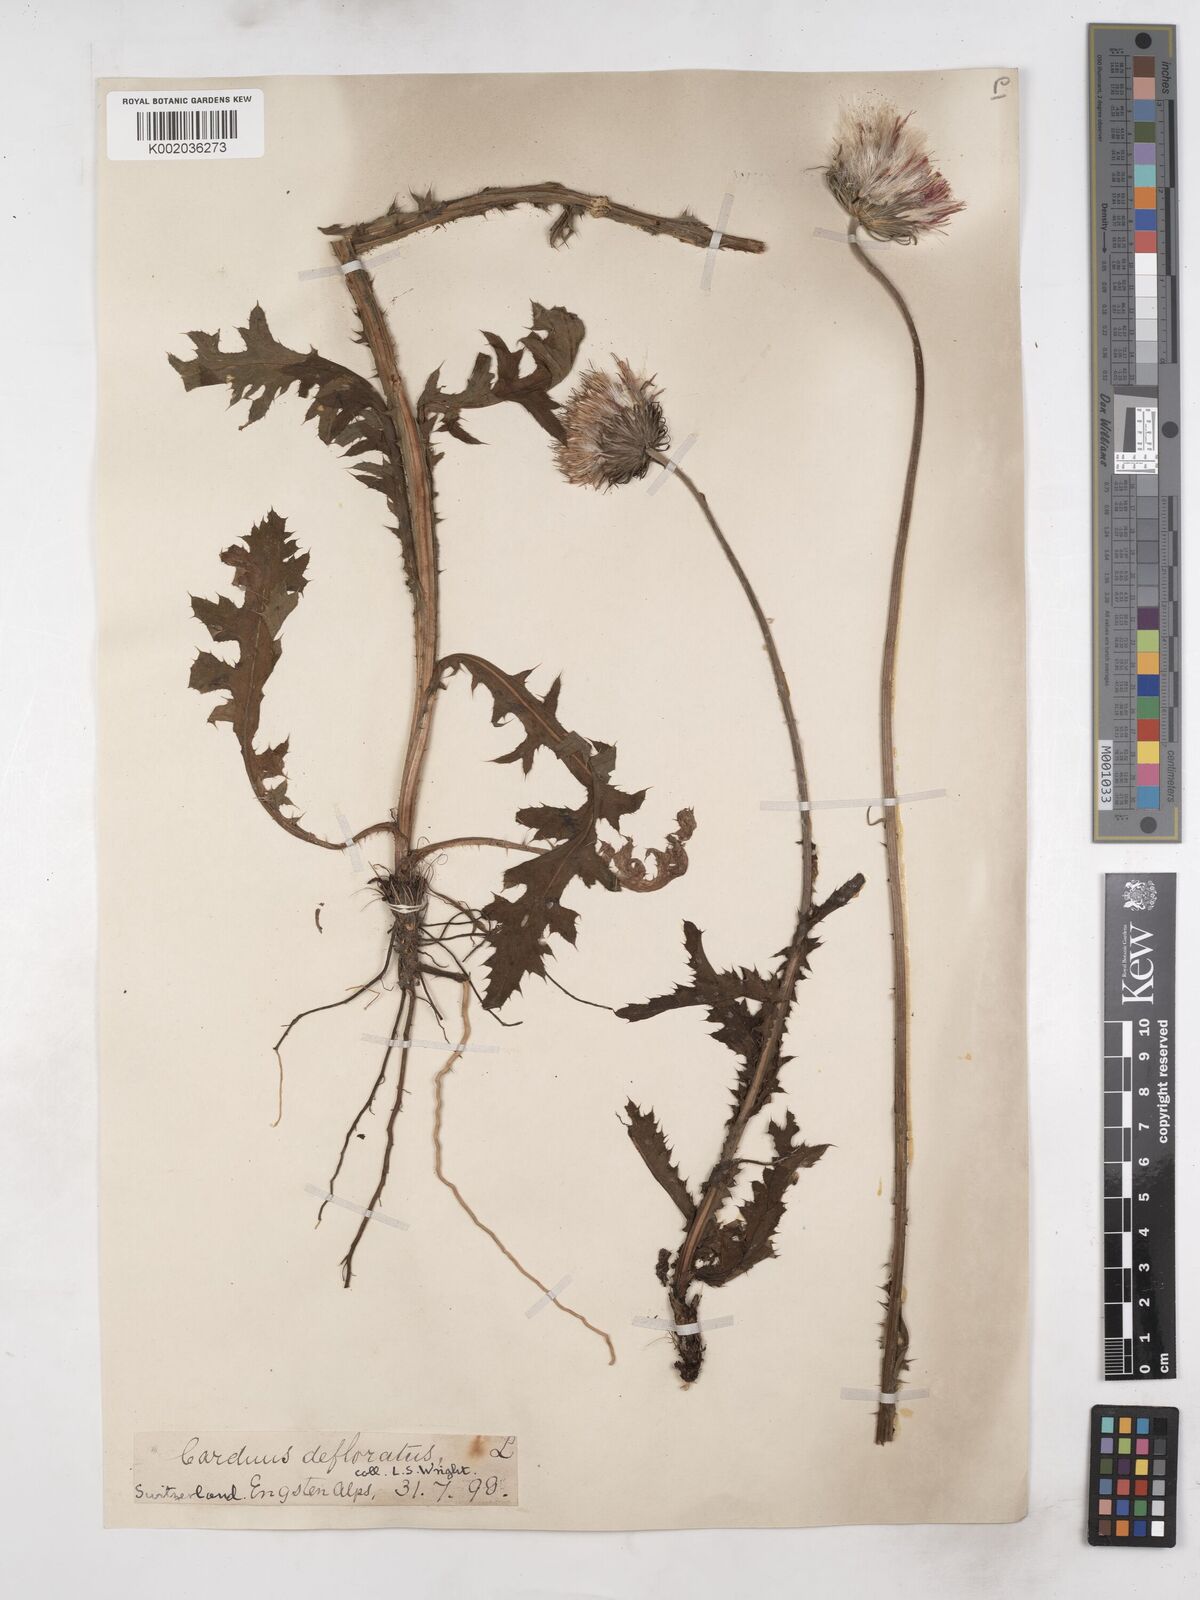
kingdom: Plantae
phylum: Tracheophyta
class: Magnoliopsida
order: Asterales
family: Asteraceae
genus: Carduus
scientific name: Carduus defloratus
